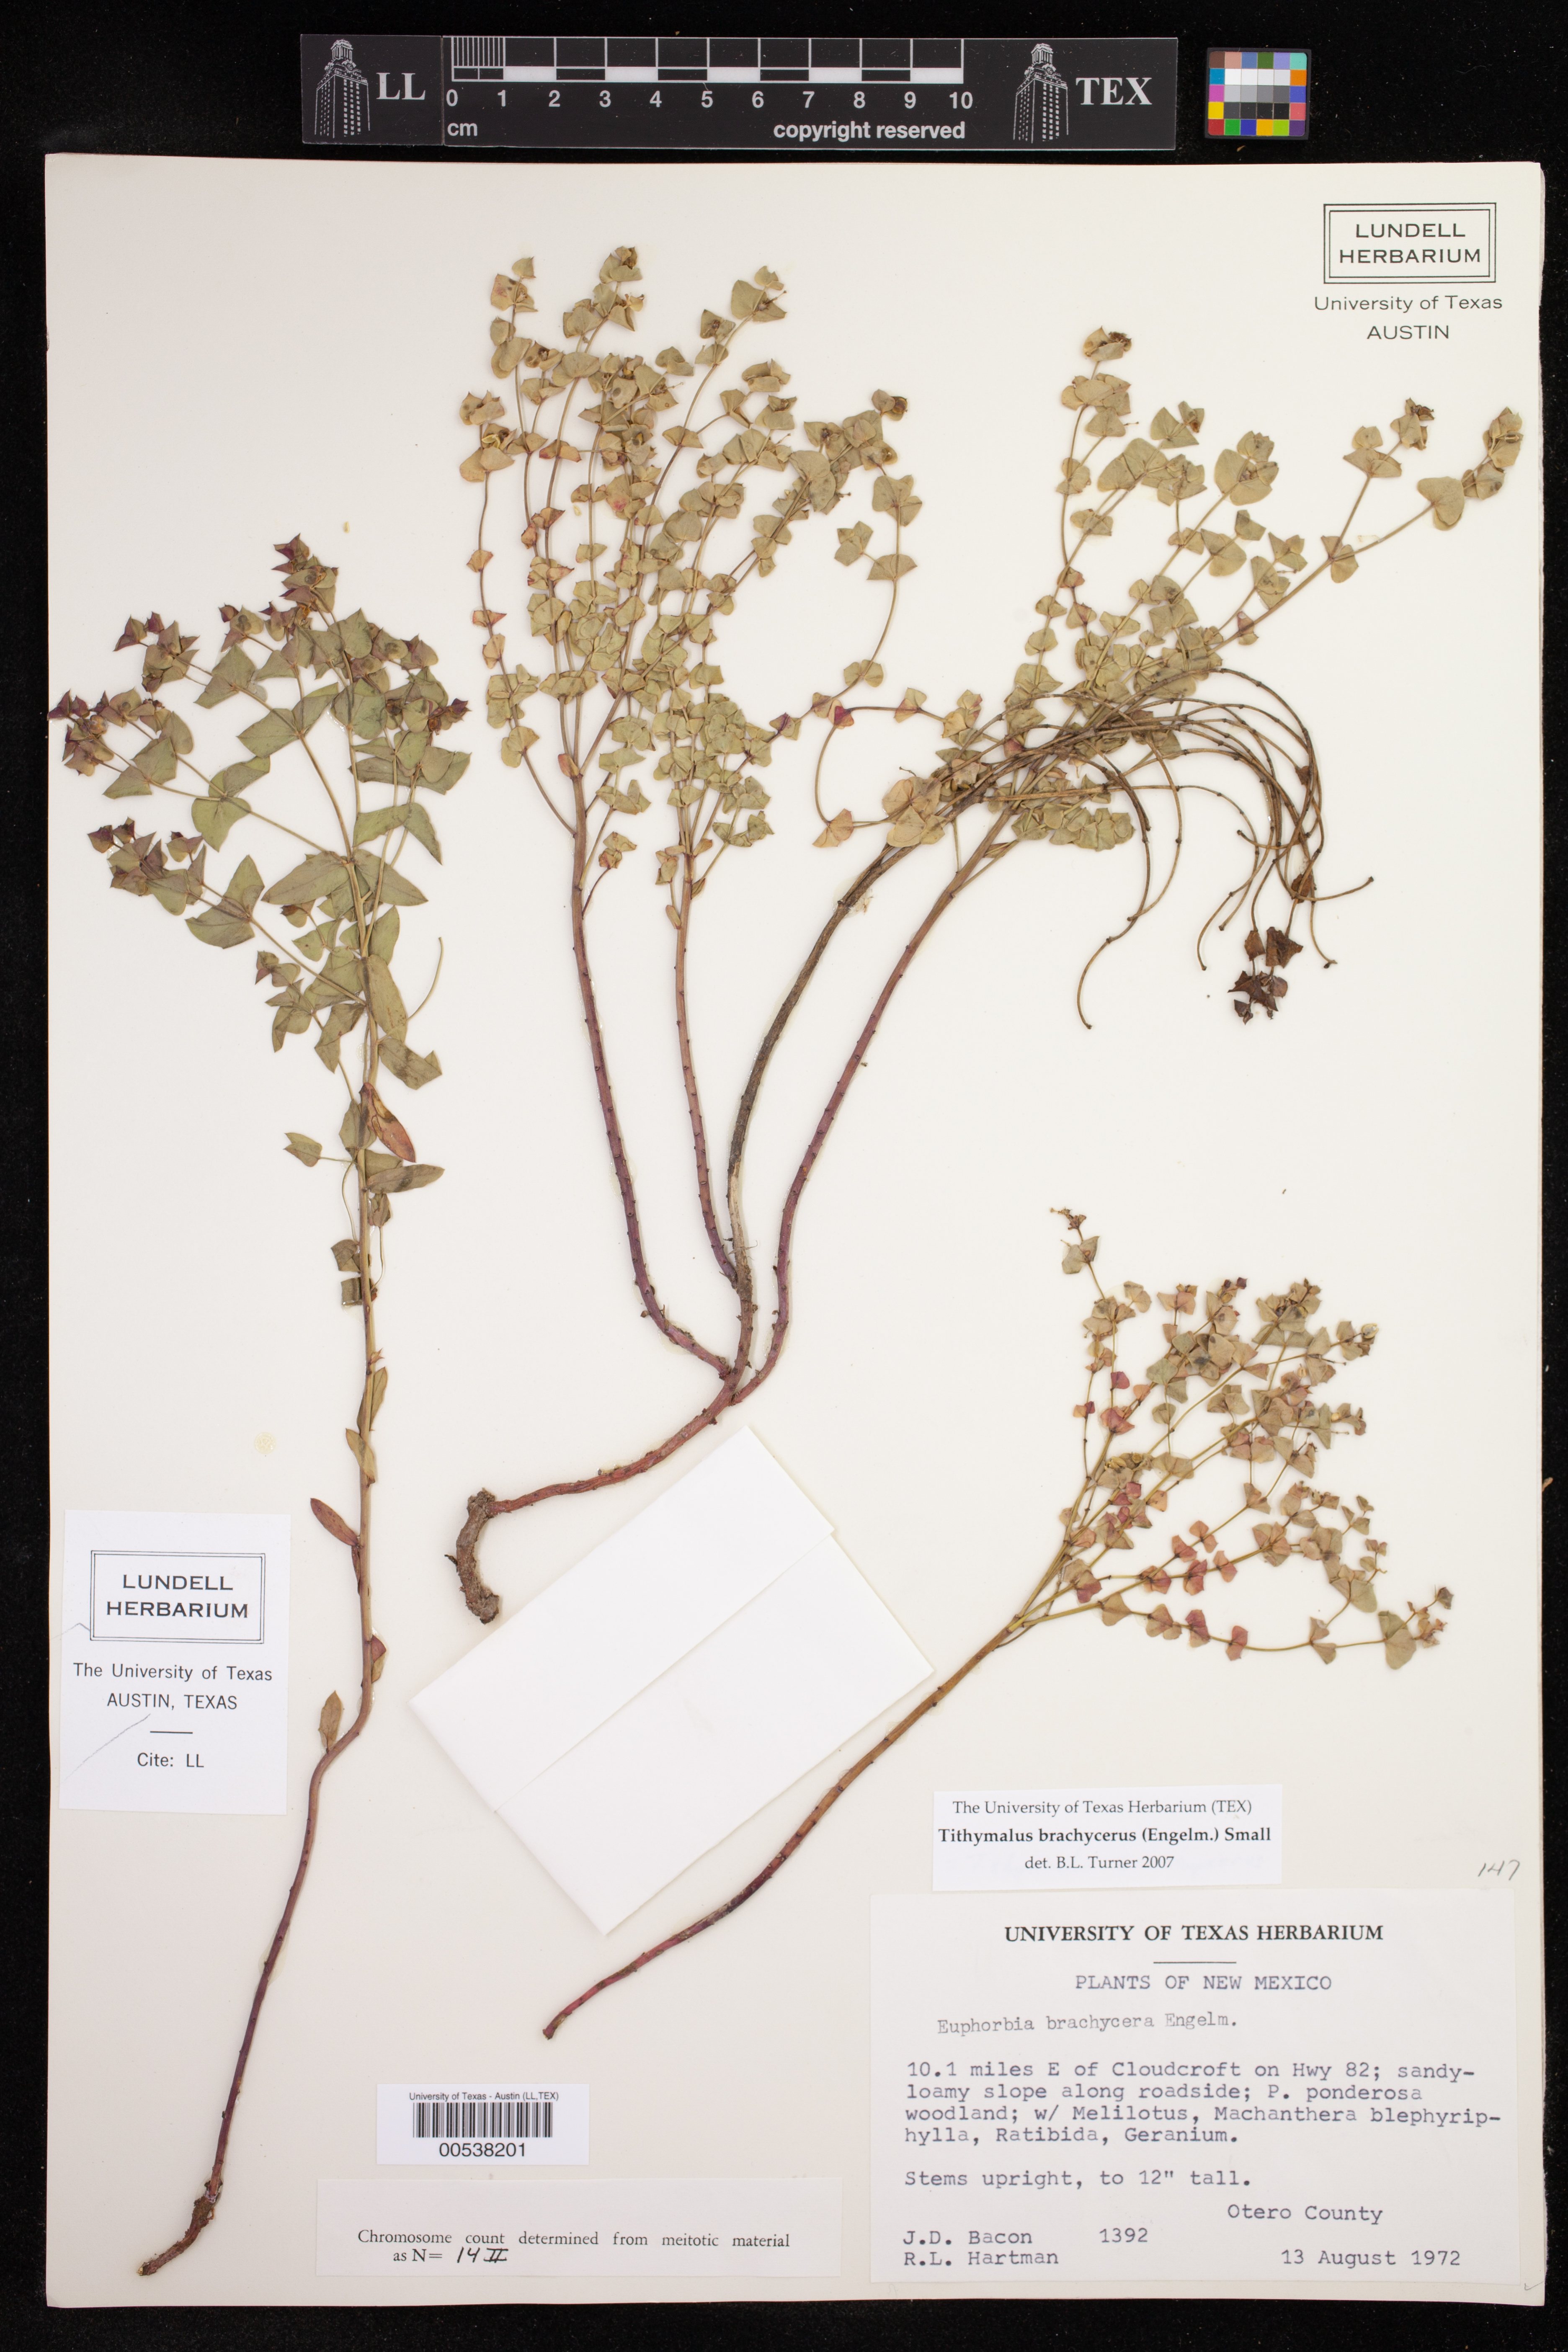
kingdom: Plantae
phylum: Tracheophyta
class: Magnoliopsida
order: Malpighiales
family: Euphorbiaceae
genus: Euphorbia
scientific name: Euphorbia brachycera
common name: Shorthorn spurge
